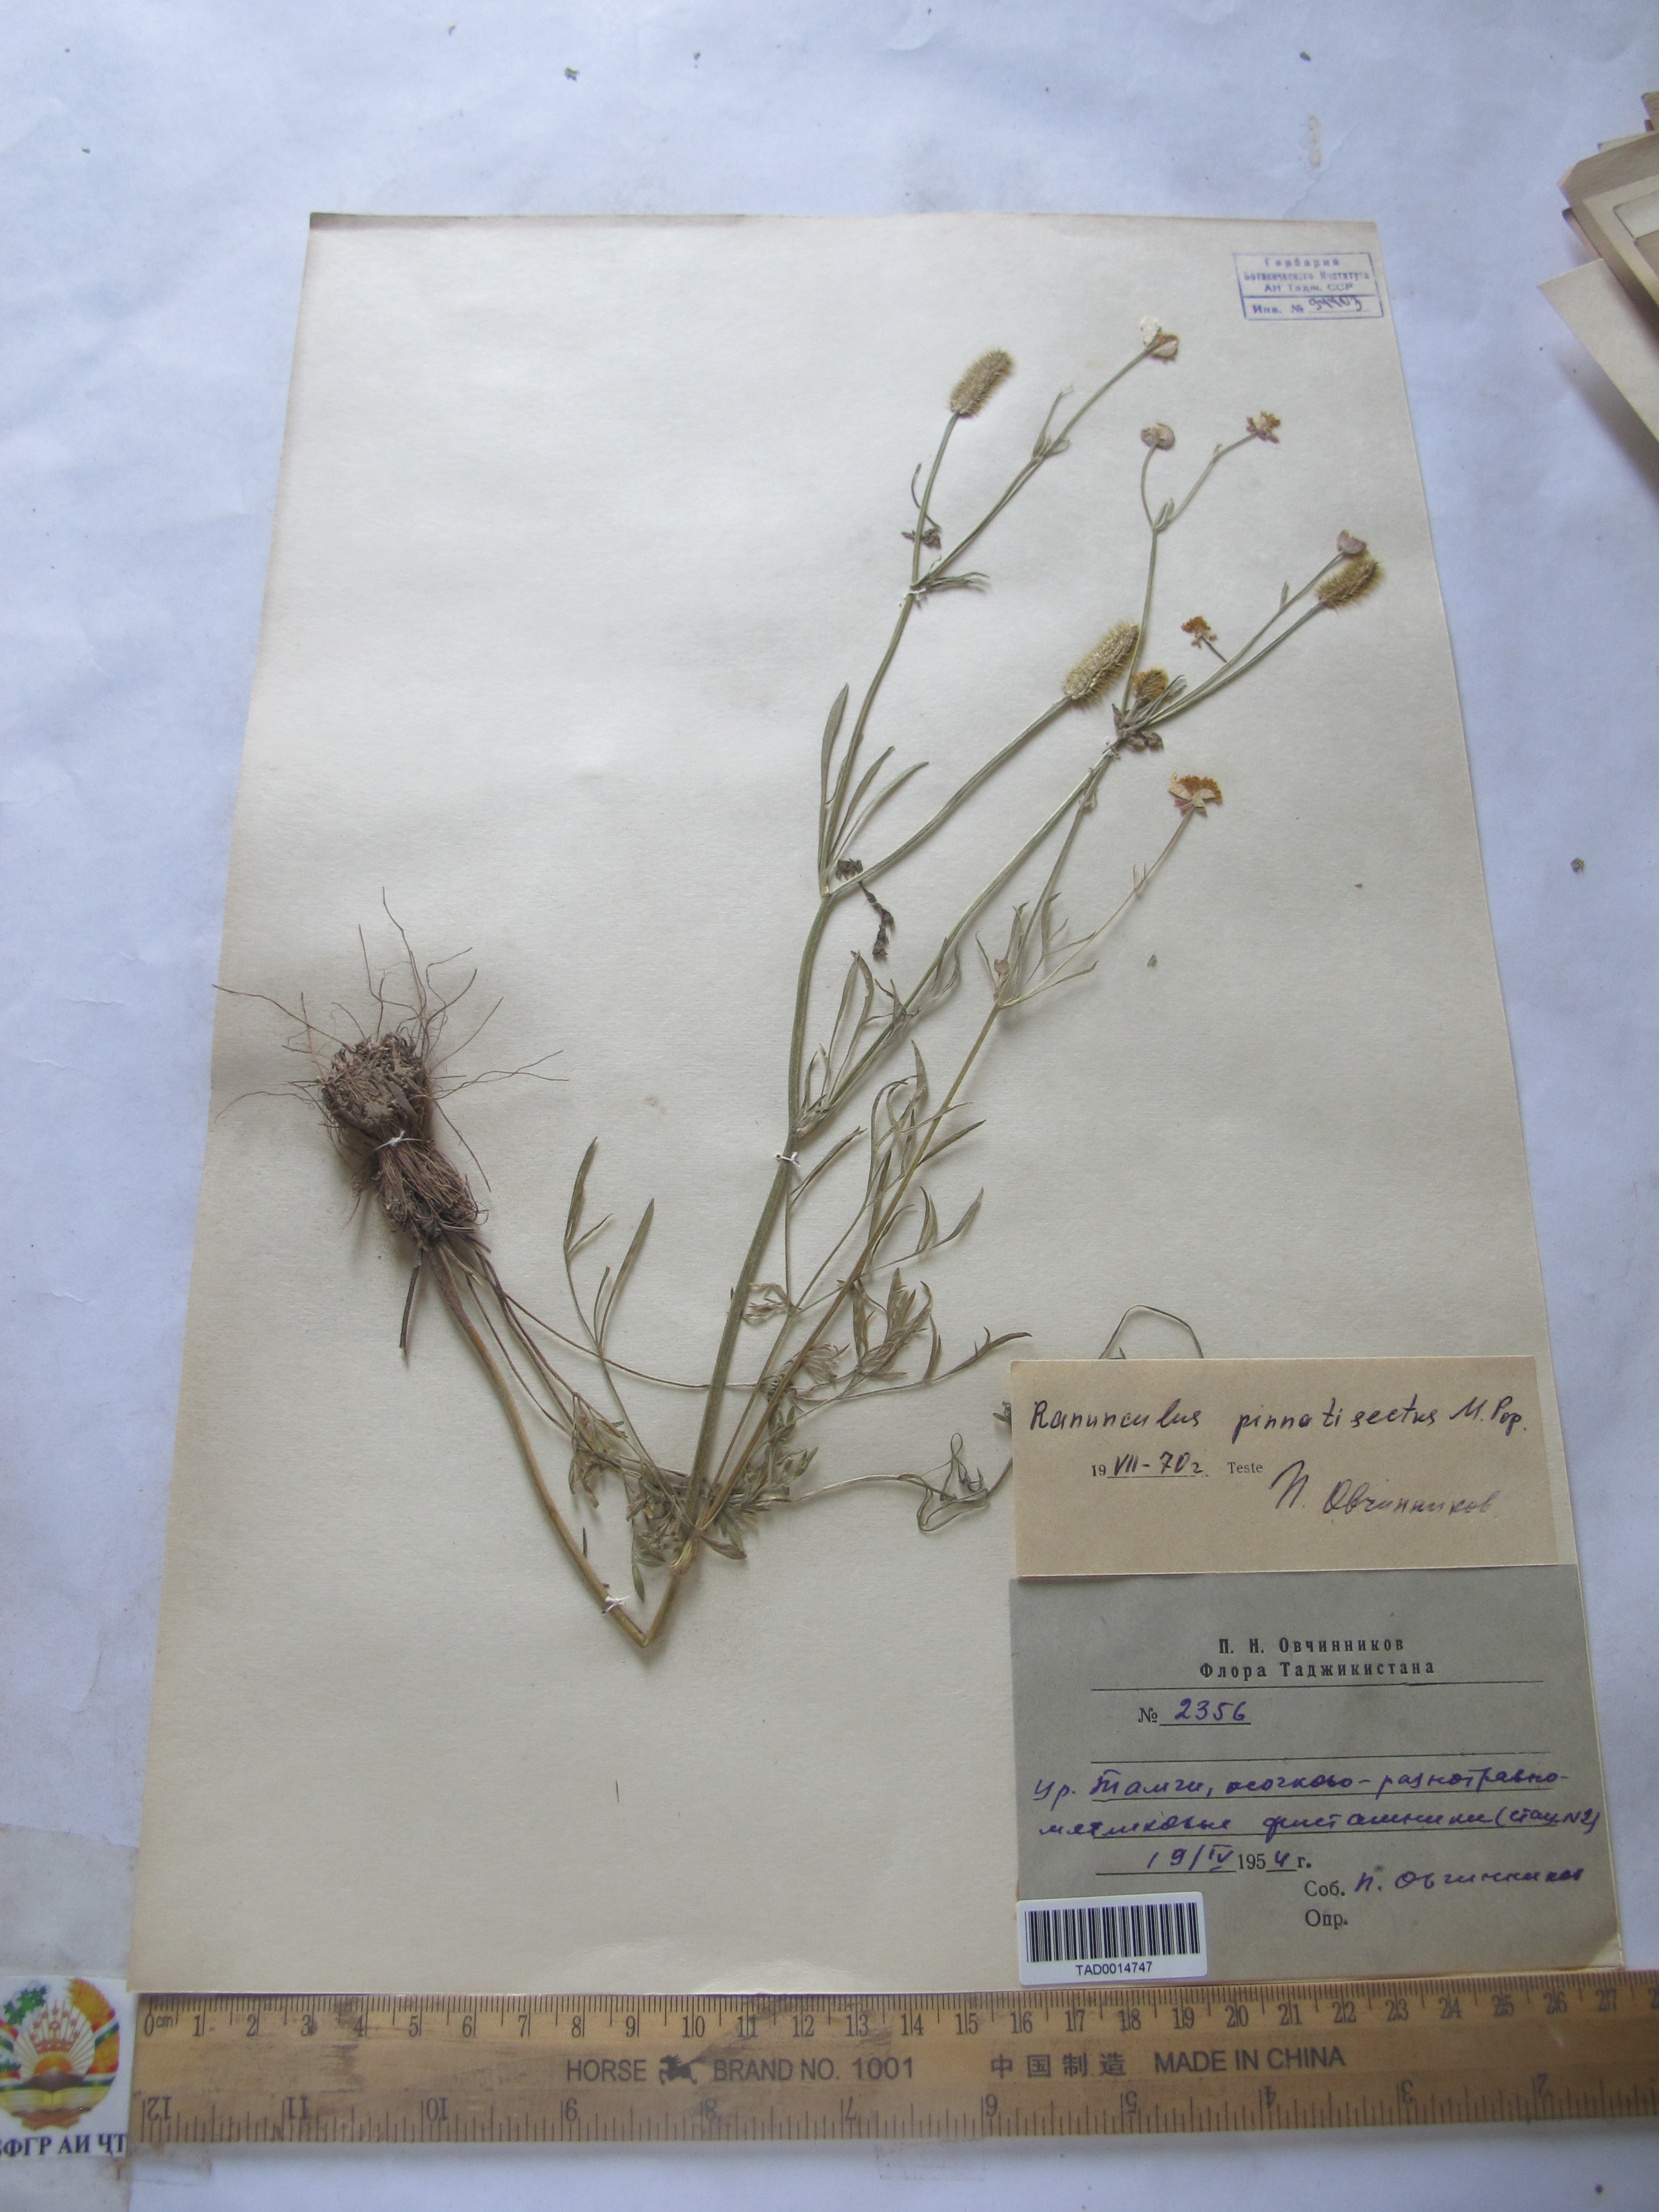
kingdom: Plantae
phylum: Tracheophyta
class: Magnoliopsida
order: Ranunculales
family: Ranunculaceae
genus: Ranunculus
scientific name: Ranunculus pinnatisectus
